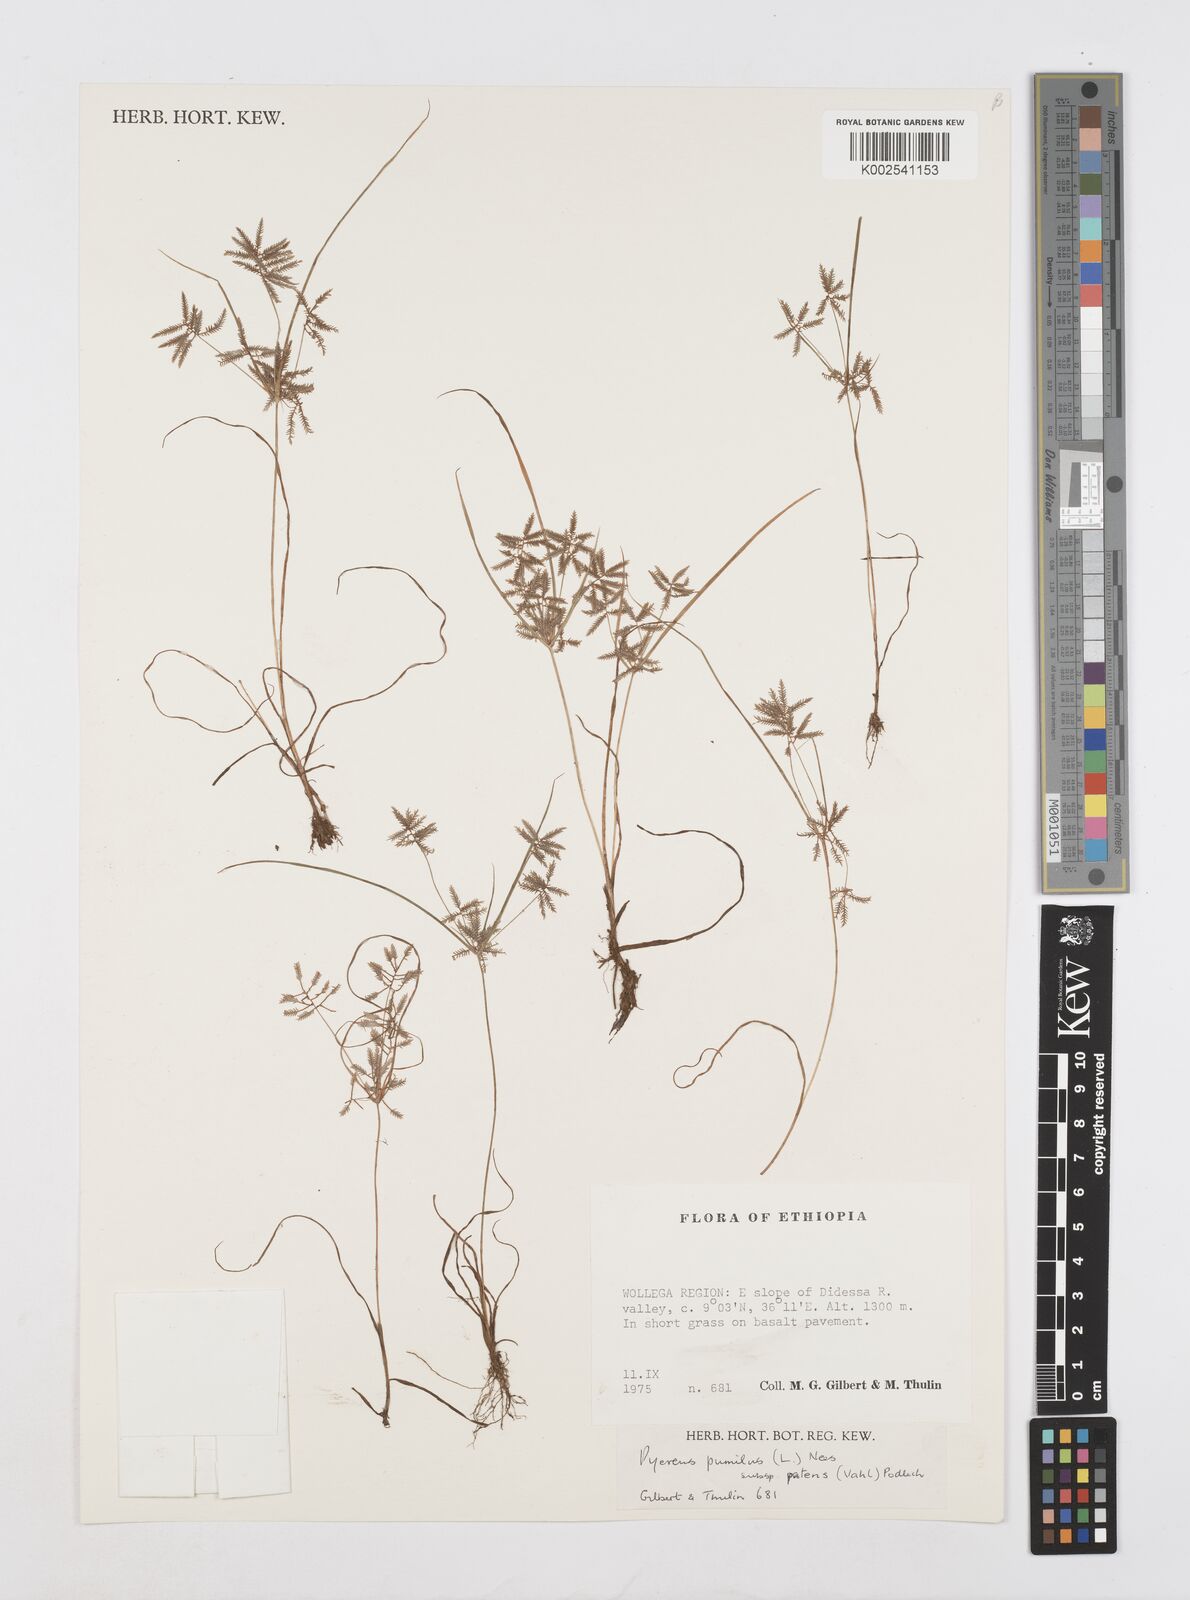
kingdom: Plantae
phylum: Tracheophyta
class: Liliopsida
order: Poales
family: Cyperaceae
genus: Cyperus
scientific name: Cyperus pumilus
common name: Low flatsedge
